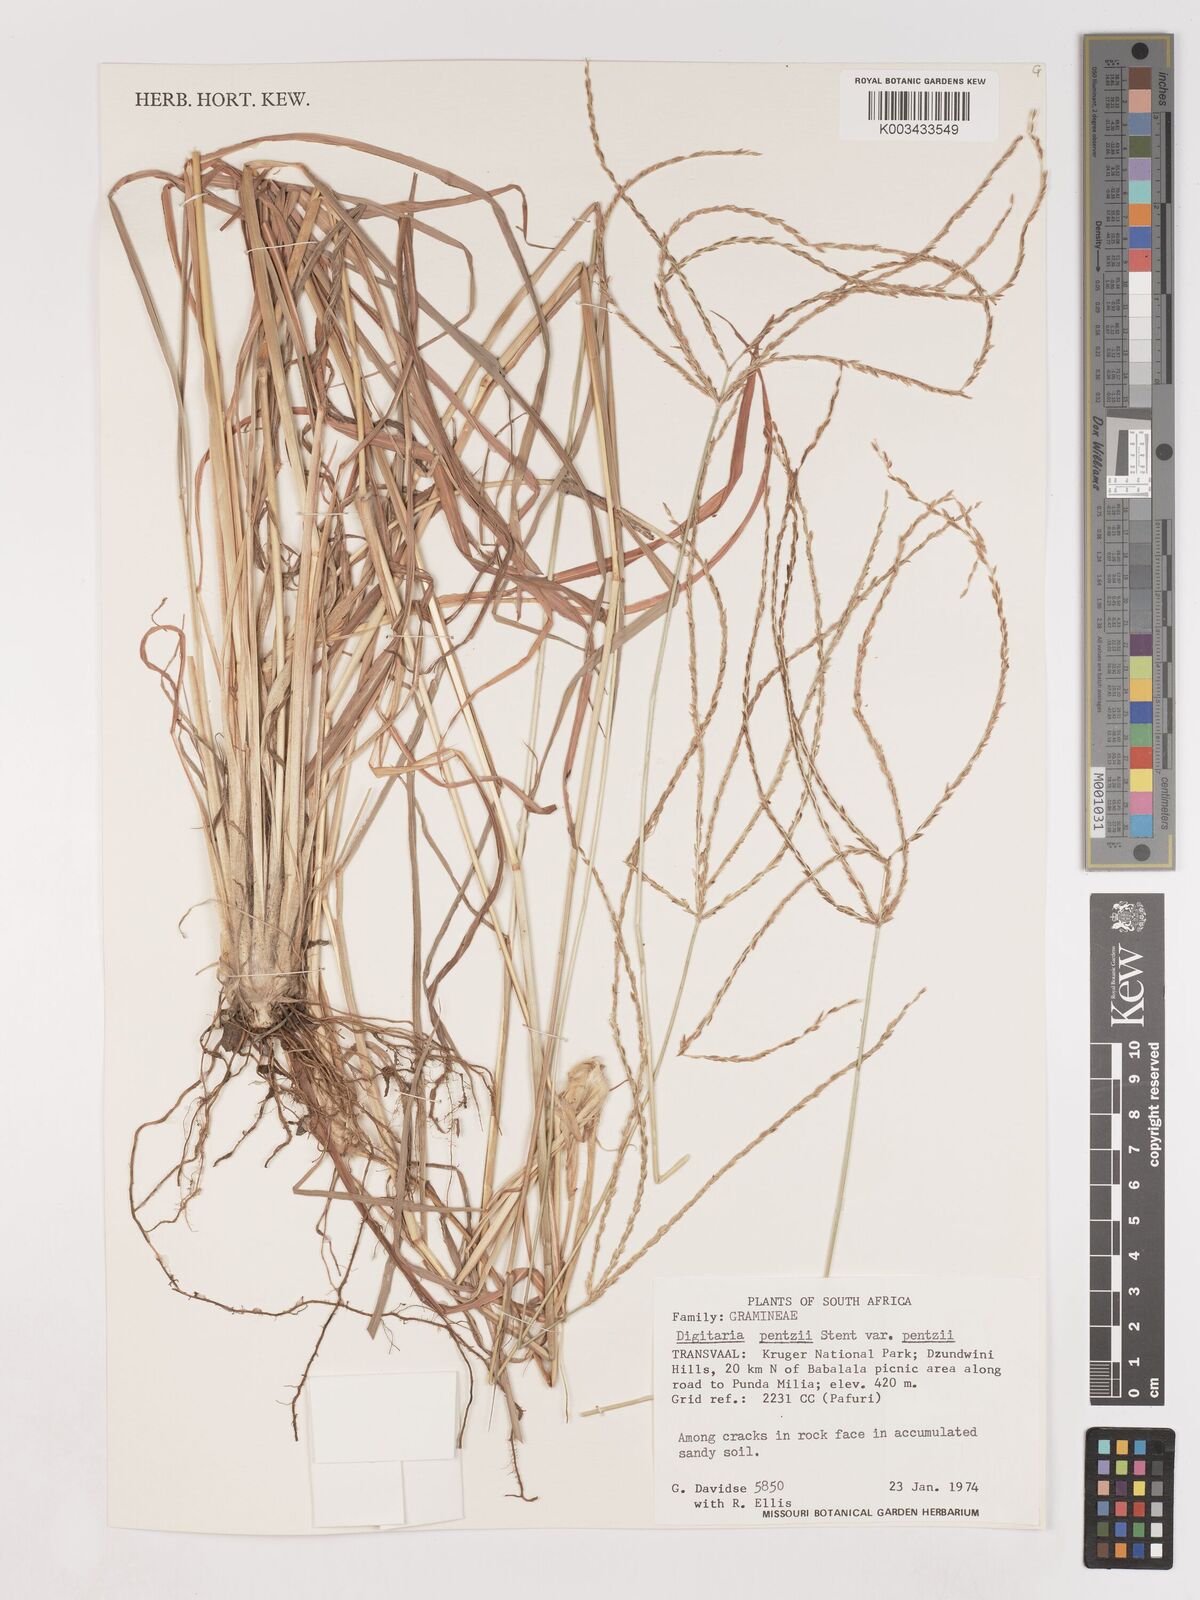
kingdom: Plantae
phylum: Tracheophyta
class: Liliopsida
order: Poales
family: Poaceae
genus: Digitaria
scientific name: Digitaria eriantha
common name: Digitgrass
